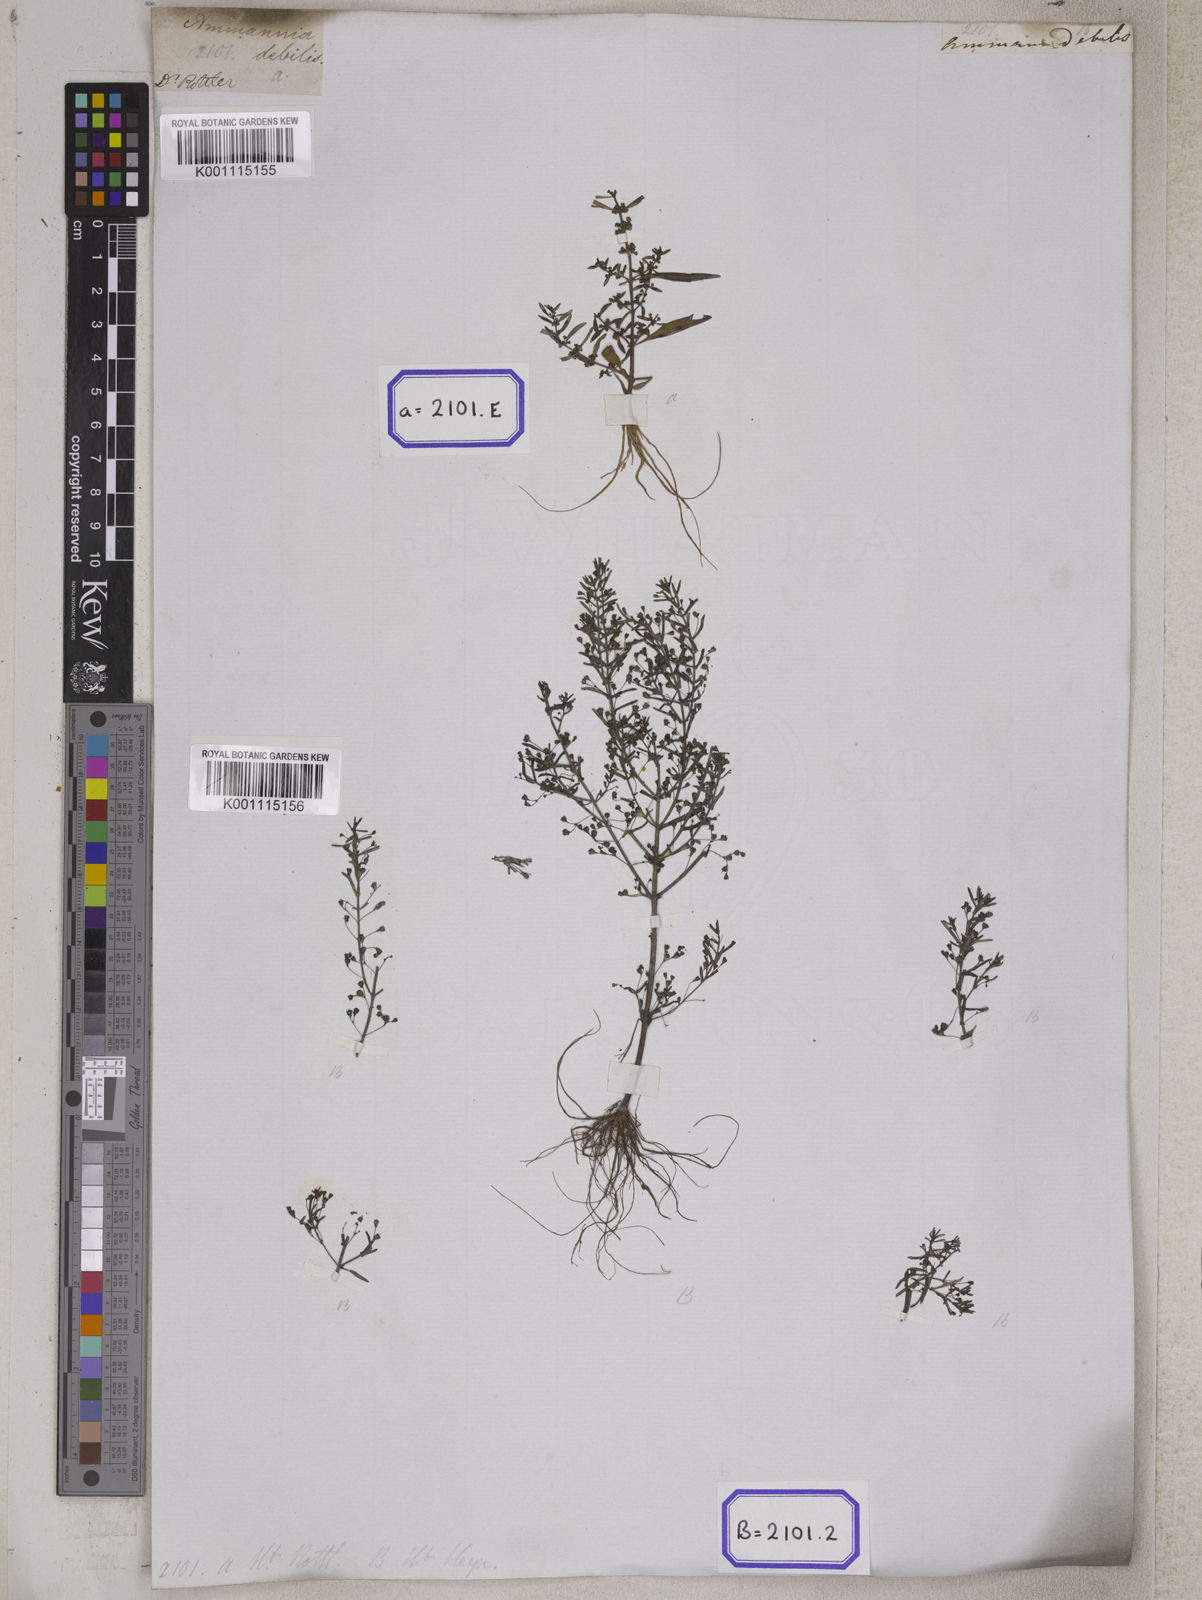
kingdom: Plantae
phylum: Tracheophyta
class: Magnoliopsida
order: Myrtales
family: Lythraceae
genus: Ammannia
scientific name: Ammannia auriculata
